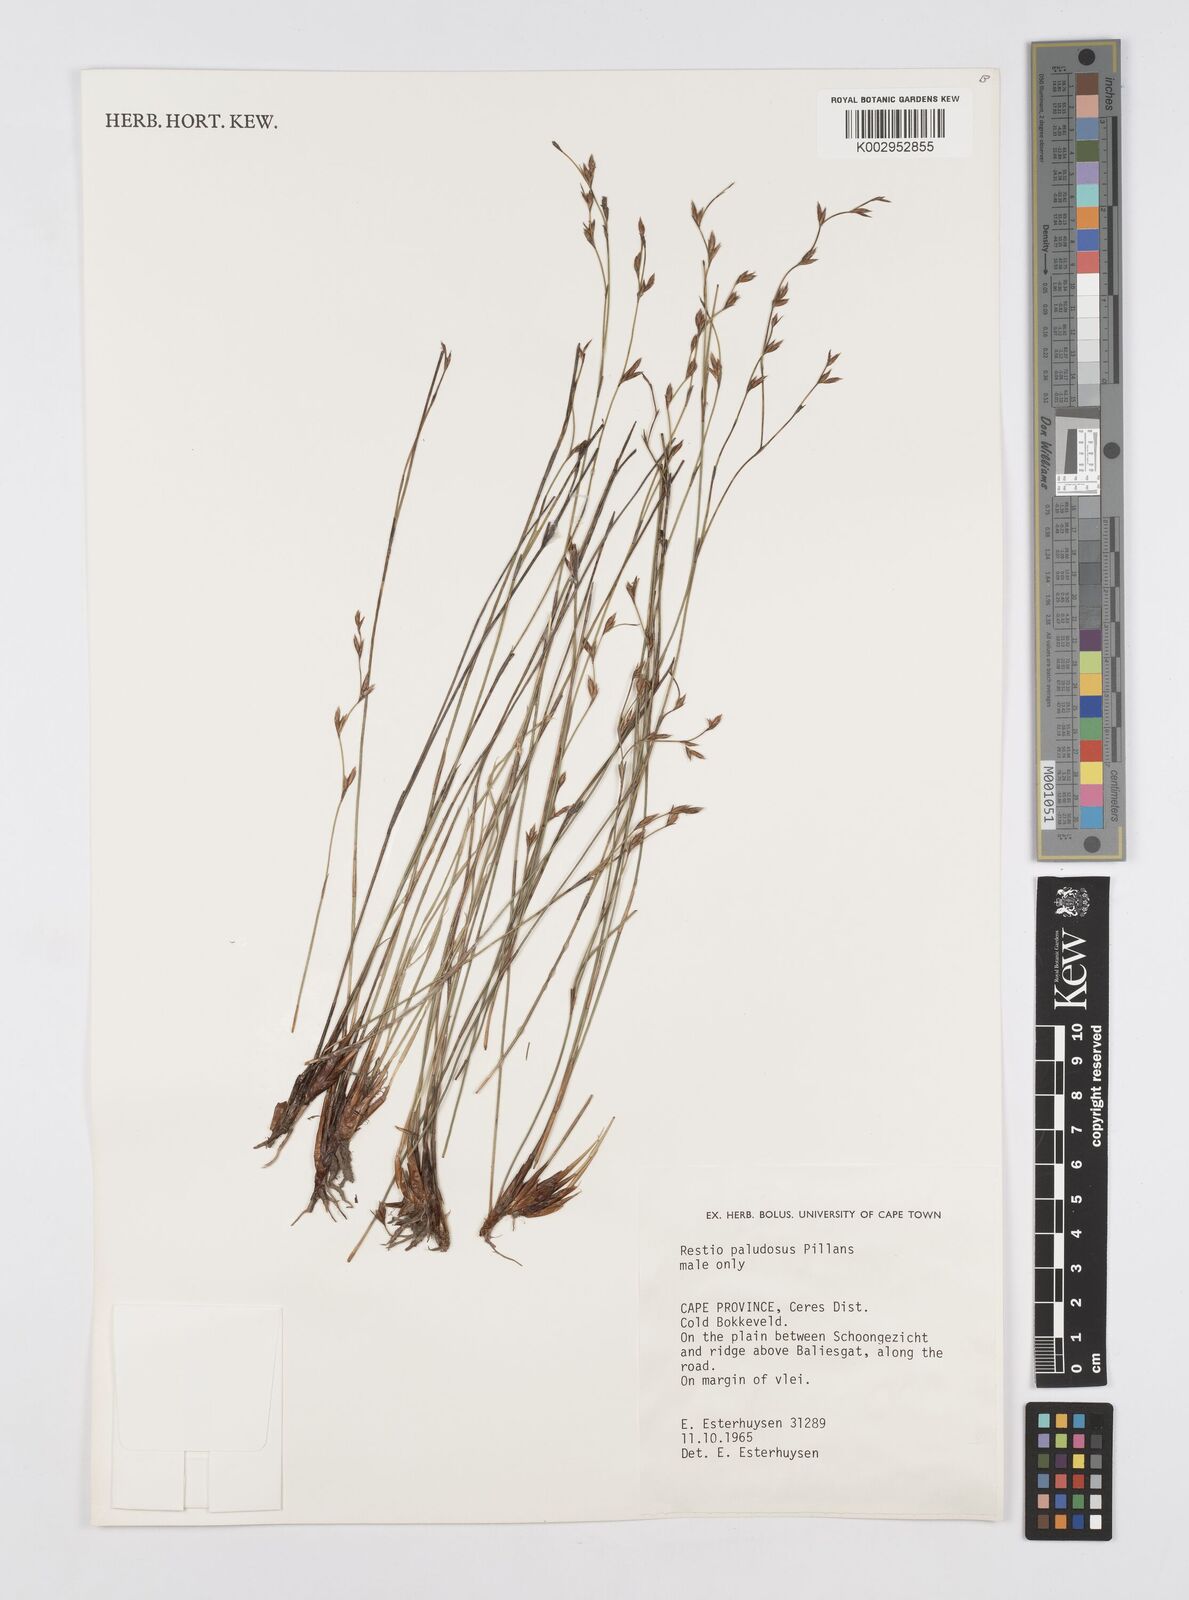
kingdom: Plantae
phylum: Tracheophyta
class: Liliopsida
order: Poales
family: Restionaceae
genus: Restio
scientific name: Restio paludosus
